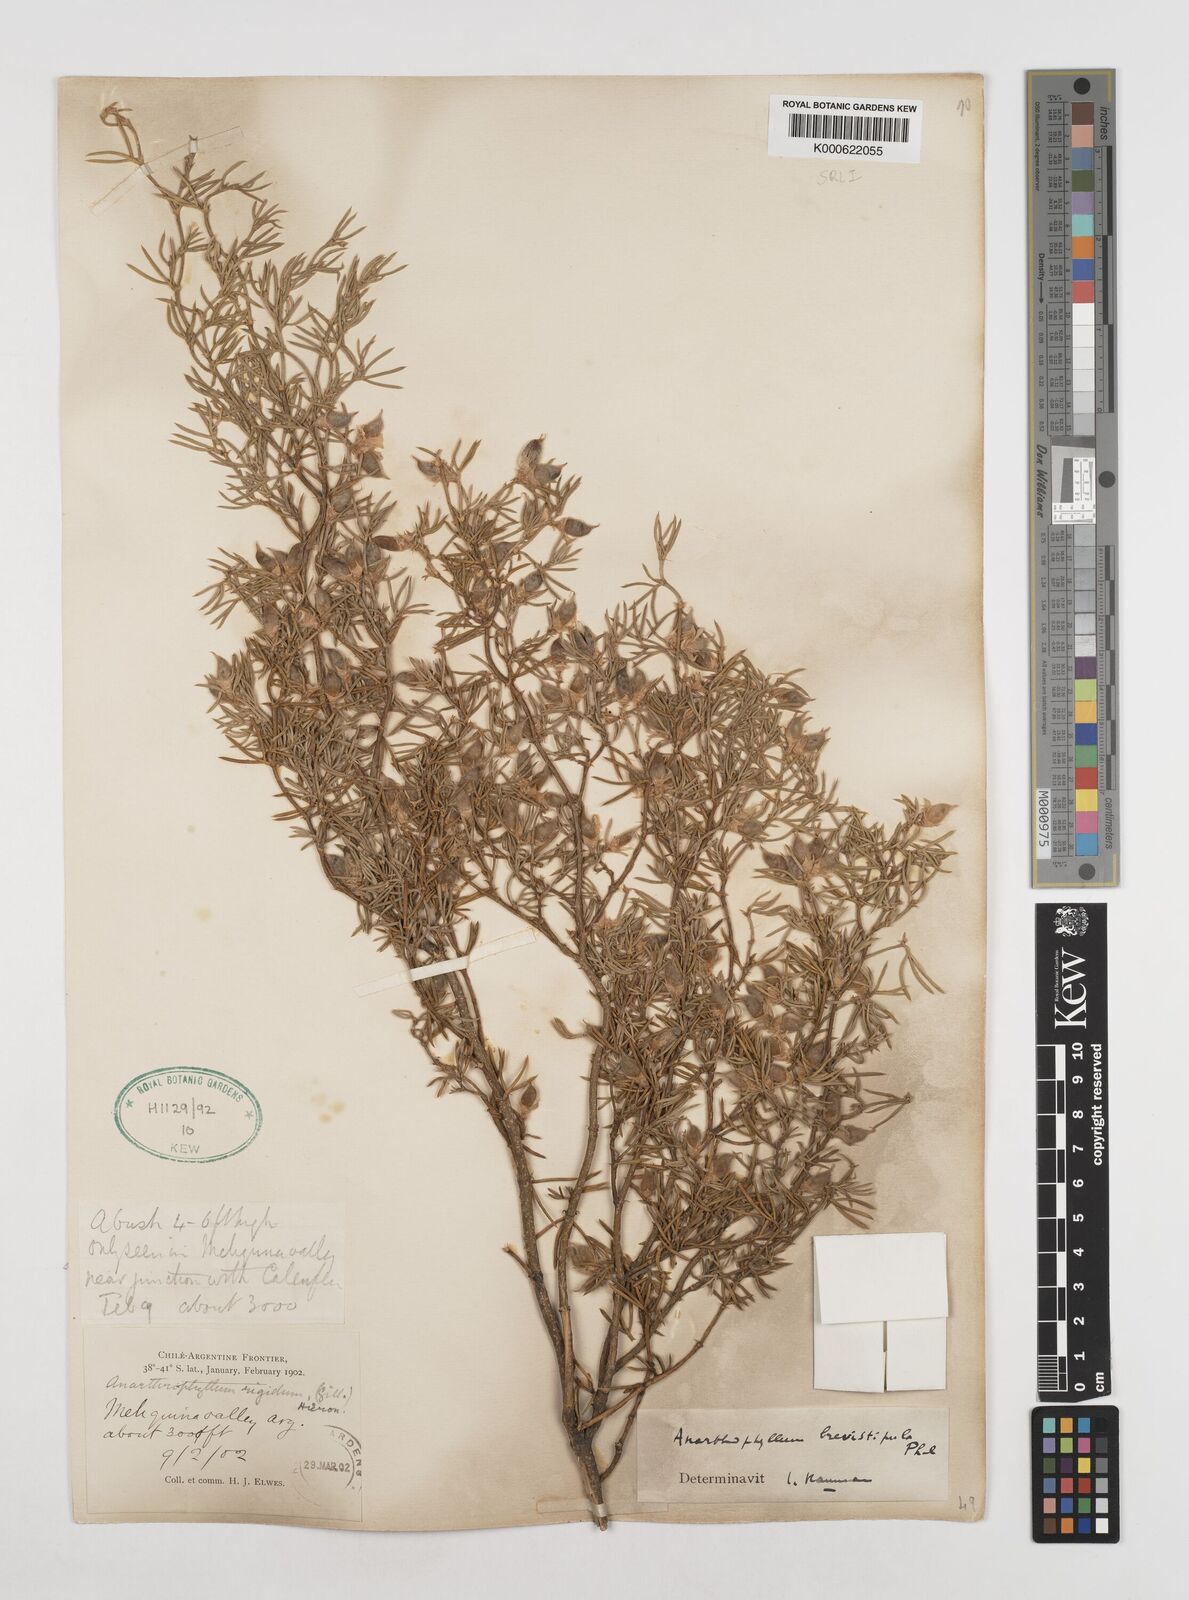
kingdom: Plantae
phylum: Tracheophyta
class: Magnoliopsida
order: Fabales
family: Fabaceae
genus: Anarthrophyllum
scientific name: Anarthrophyllum rigidum
